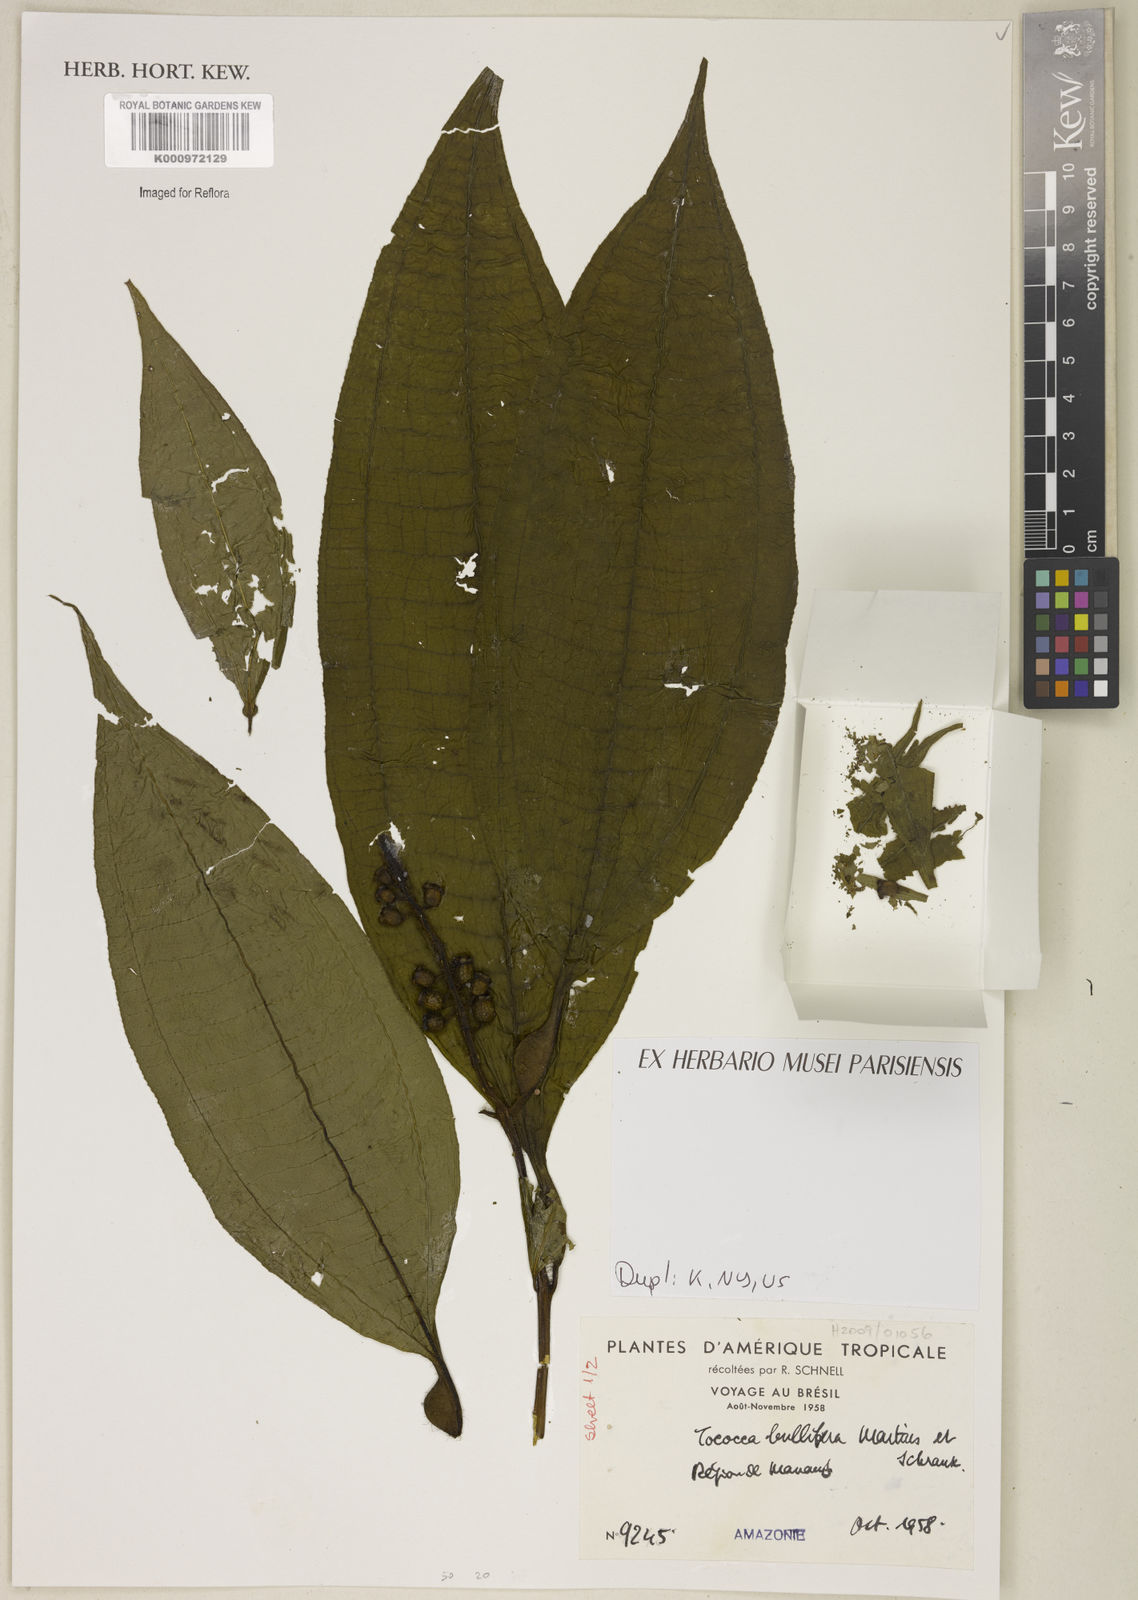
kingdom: Plantae
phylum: Tracheophyta
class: Magnoliopsida
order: Myrtales
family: Melastomataceae
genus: Miconia
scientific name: Miconia bullifera
